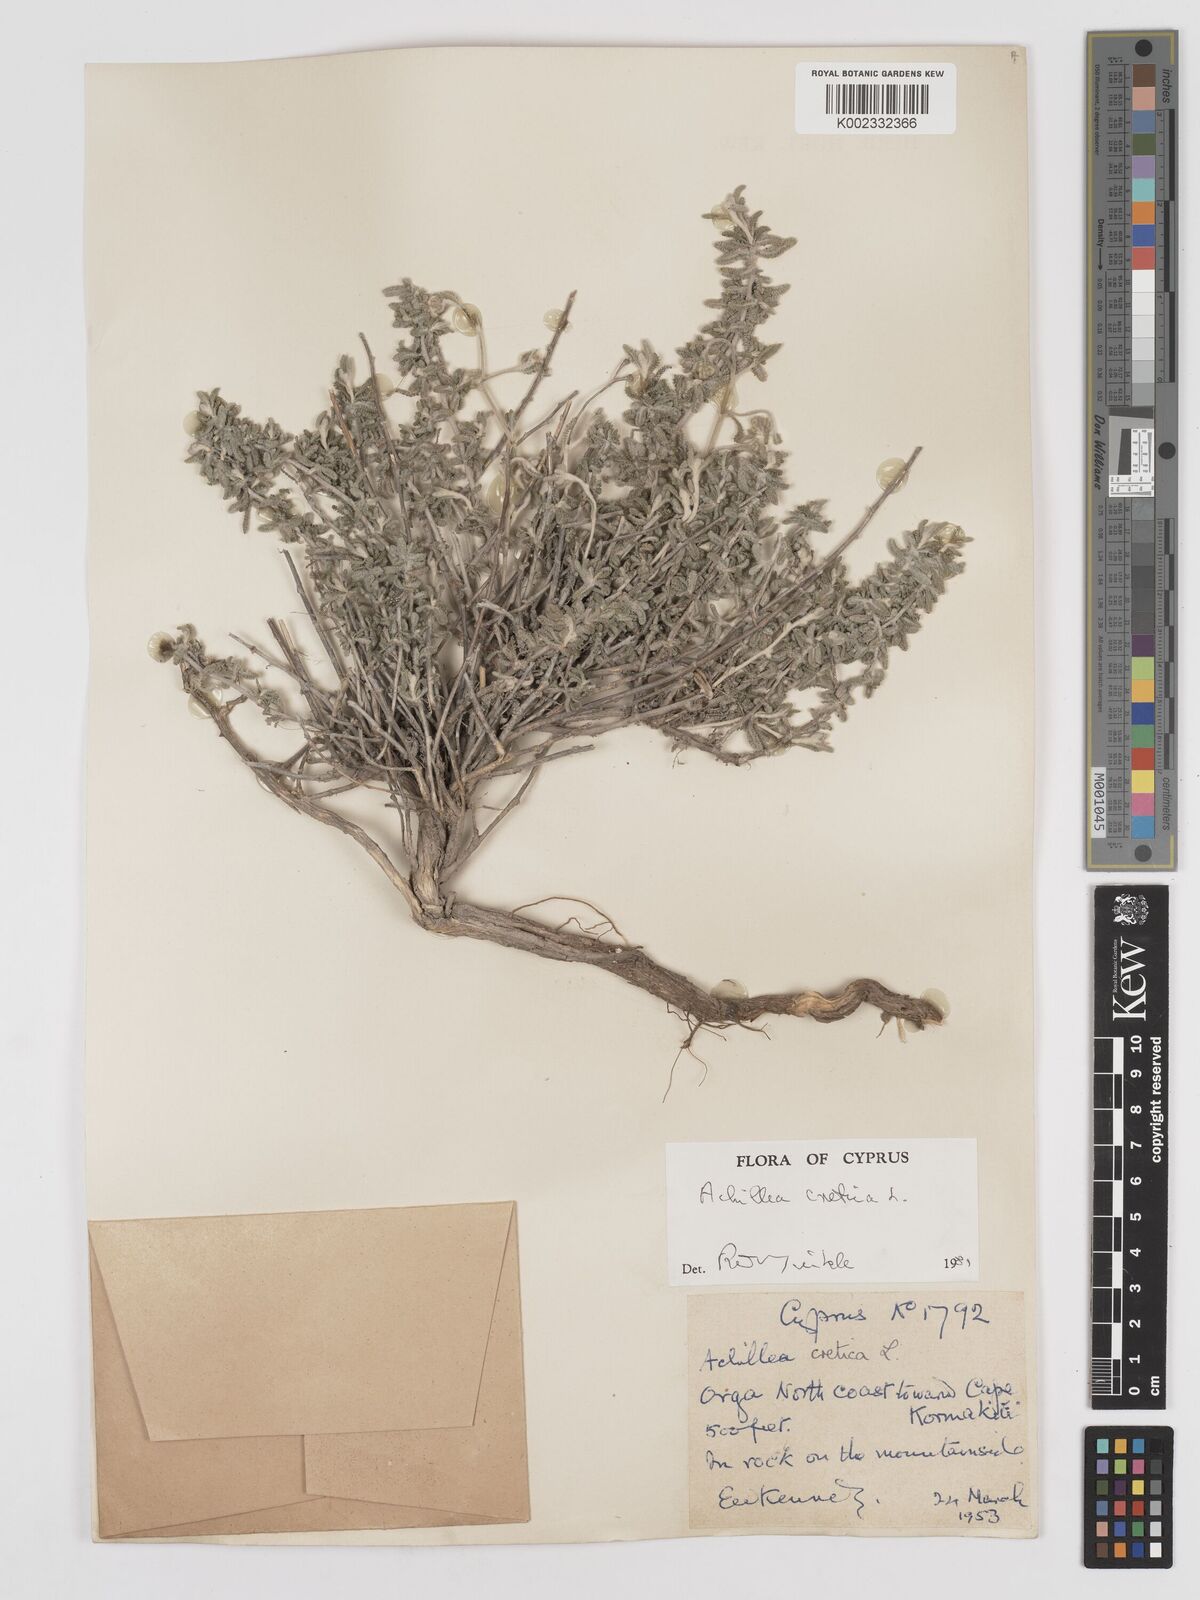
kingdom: Plantae
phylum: Tracheophyta
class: Magnoliopsida
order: Asterales
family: Asteraceae
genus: Achillea
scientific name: Achillea cretica
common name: Chamomile-leaved lavender-cotton
